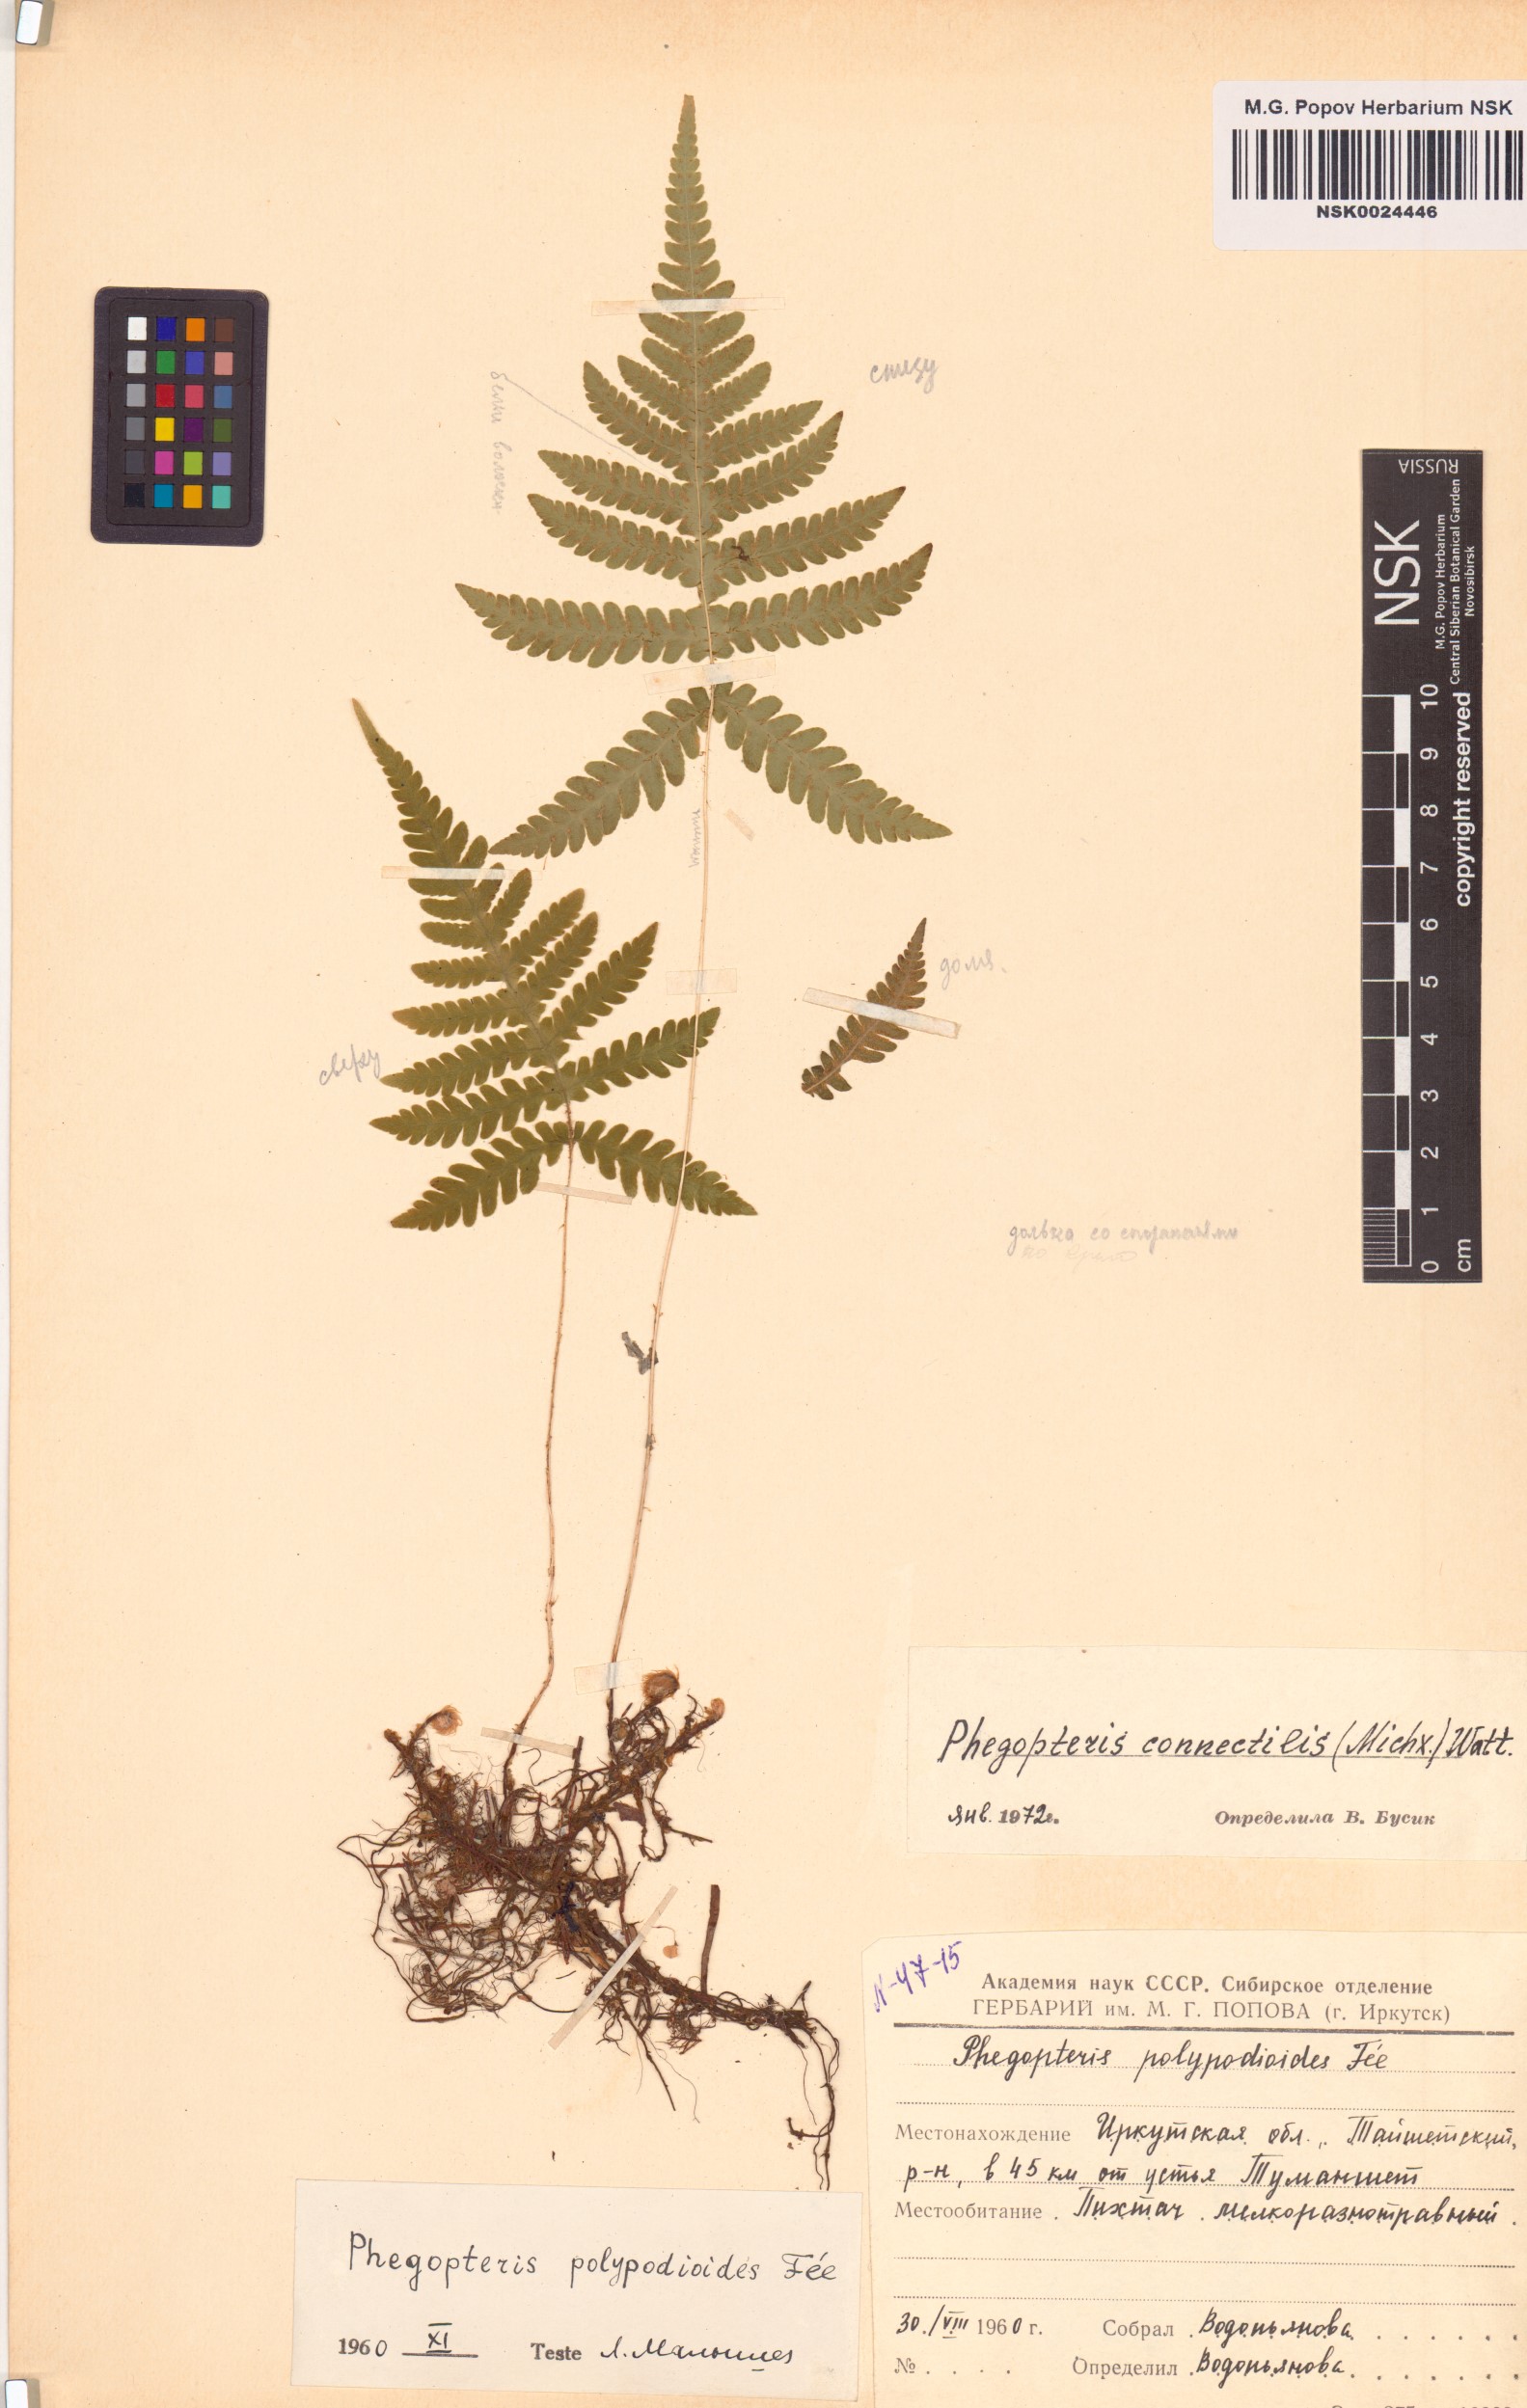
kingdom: Plantae
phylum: Tracheophyta
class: Polypodiopsida
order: Polypodiales
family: Thelypteridaceae
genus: Phegopteris
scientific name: Phegopteris connectilis
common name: Beech fern
